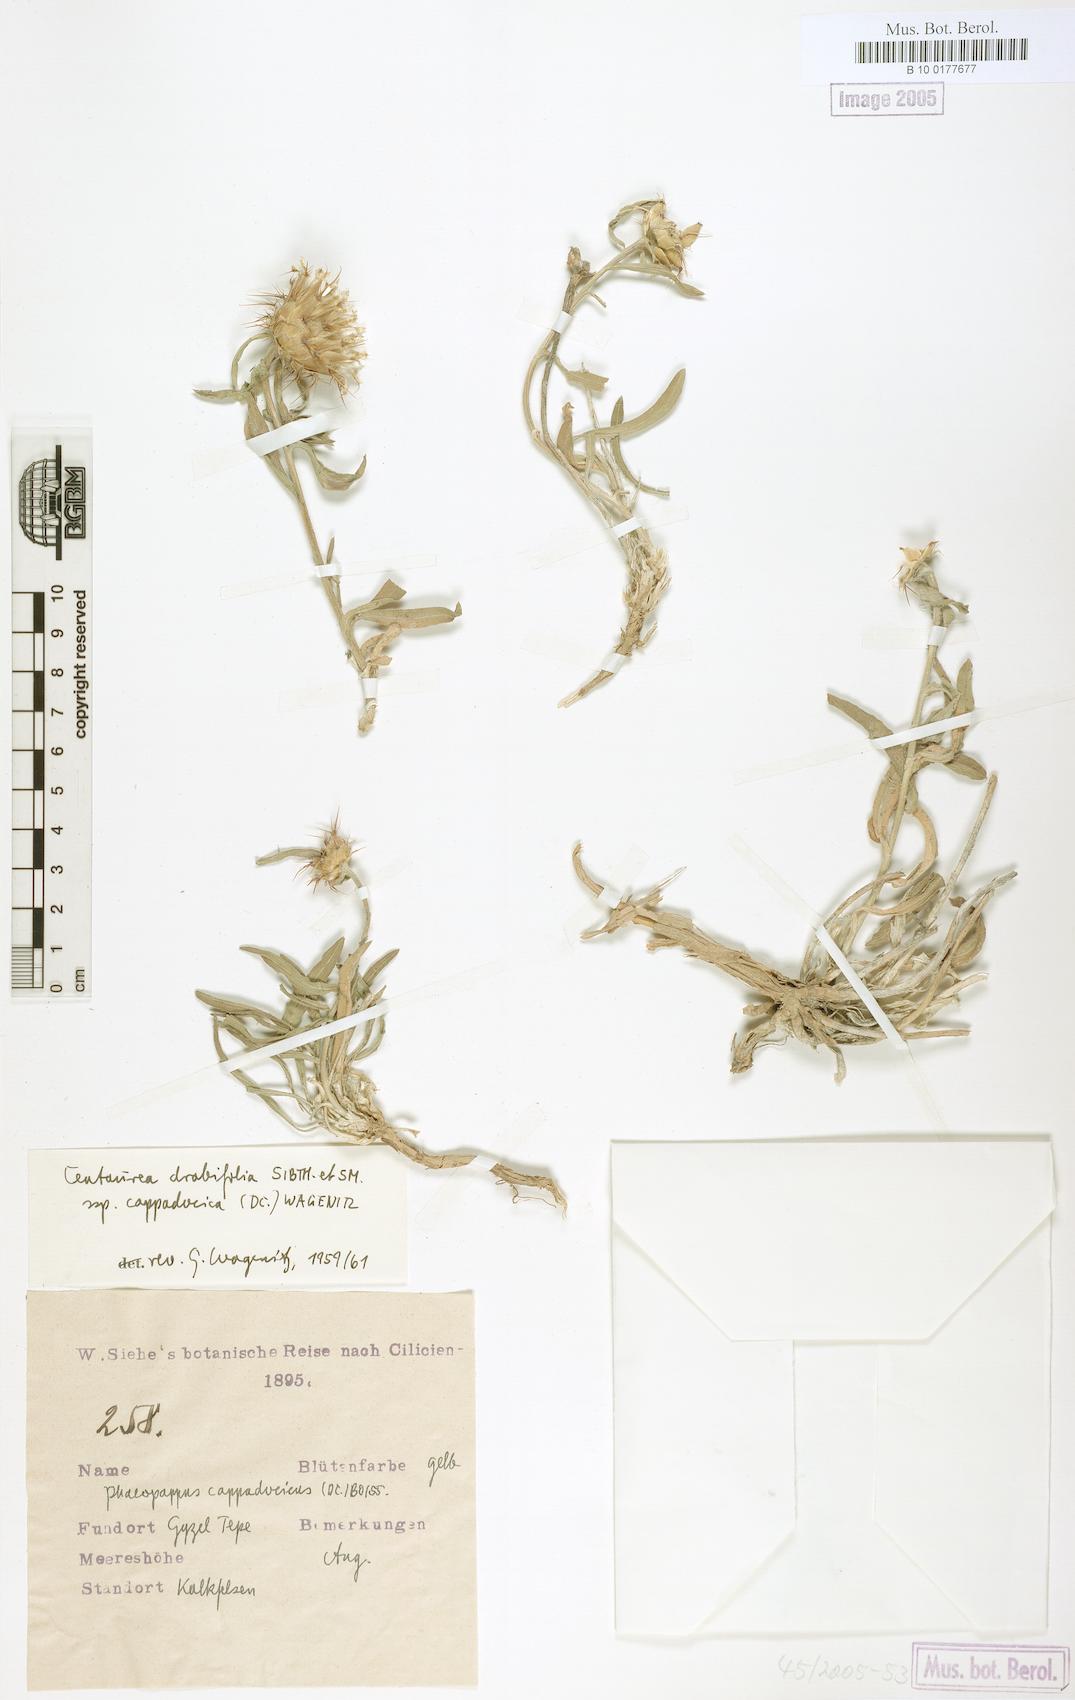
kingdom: Plantae
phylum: Tracheophyta
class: Magnoliopsida
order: Asterales
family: Asteraceae
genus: Centaurea
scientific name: Centaurea drabifolia
